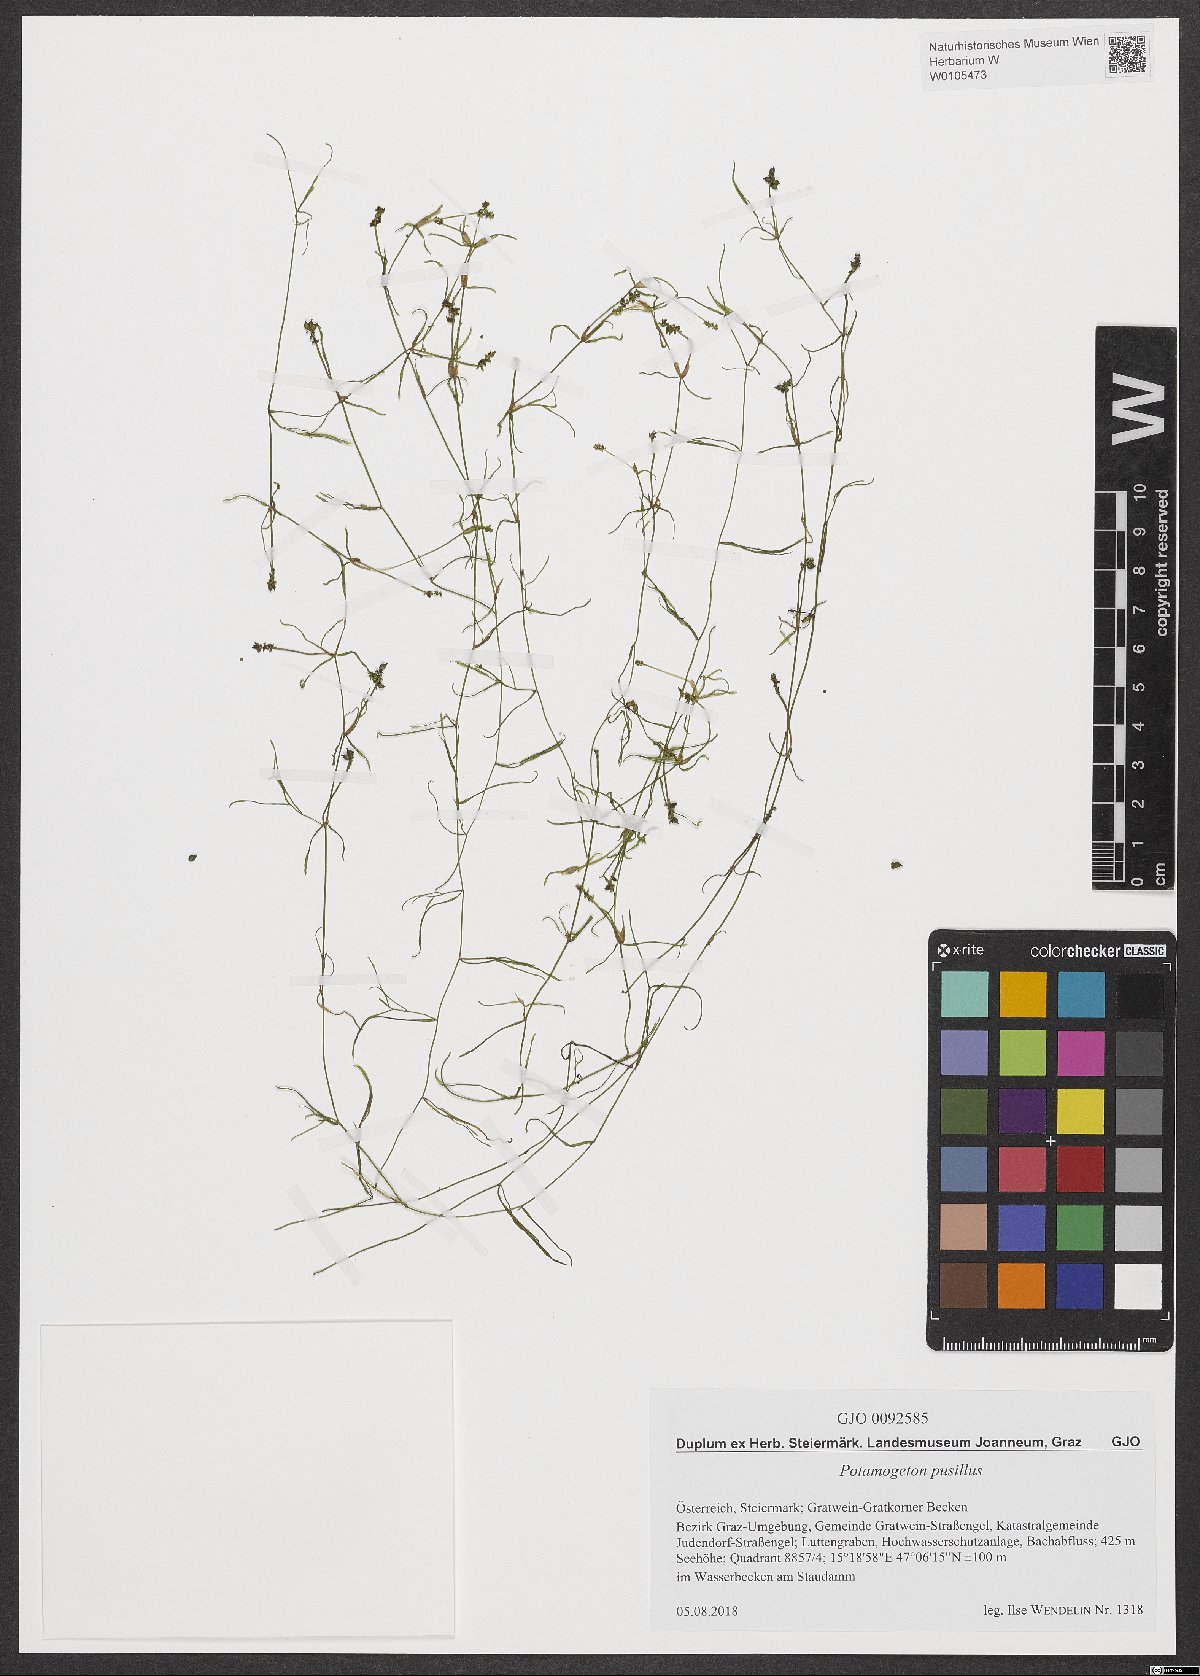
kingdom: Plantae
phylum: Tracheophyta
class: Liliopsida
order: Alismatales
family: Potamogetonaceae
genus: Potamogeton
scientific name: Potamogeton pusillus
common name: Lesser pondweed
